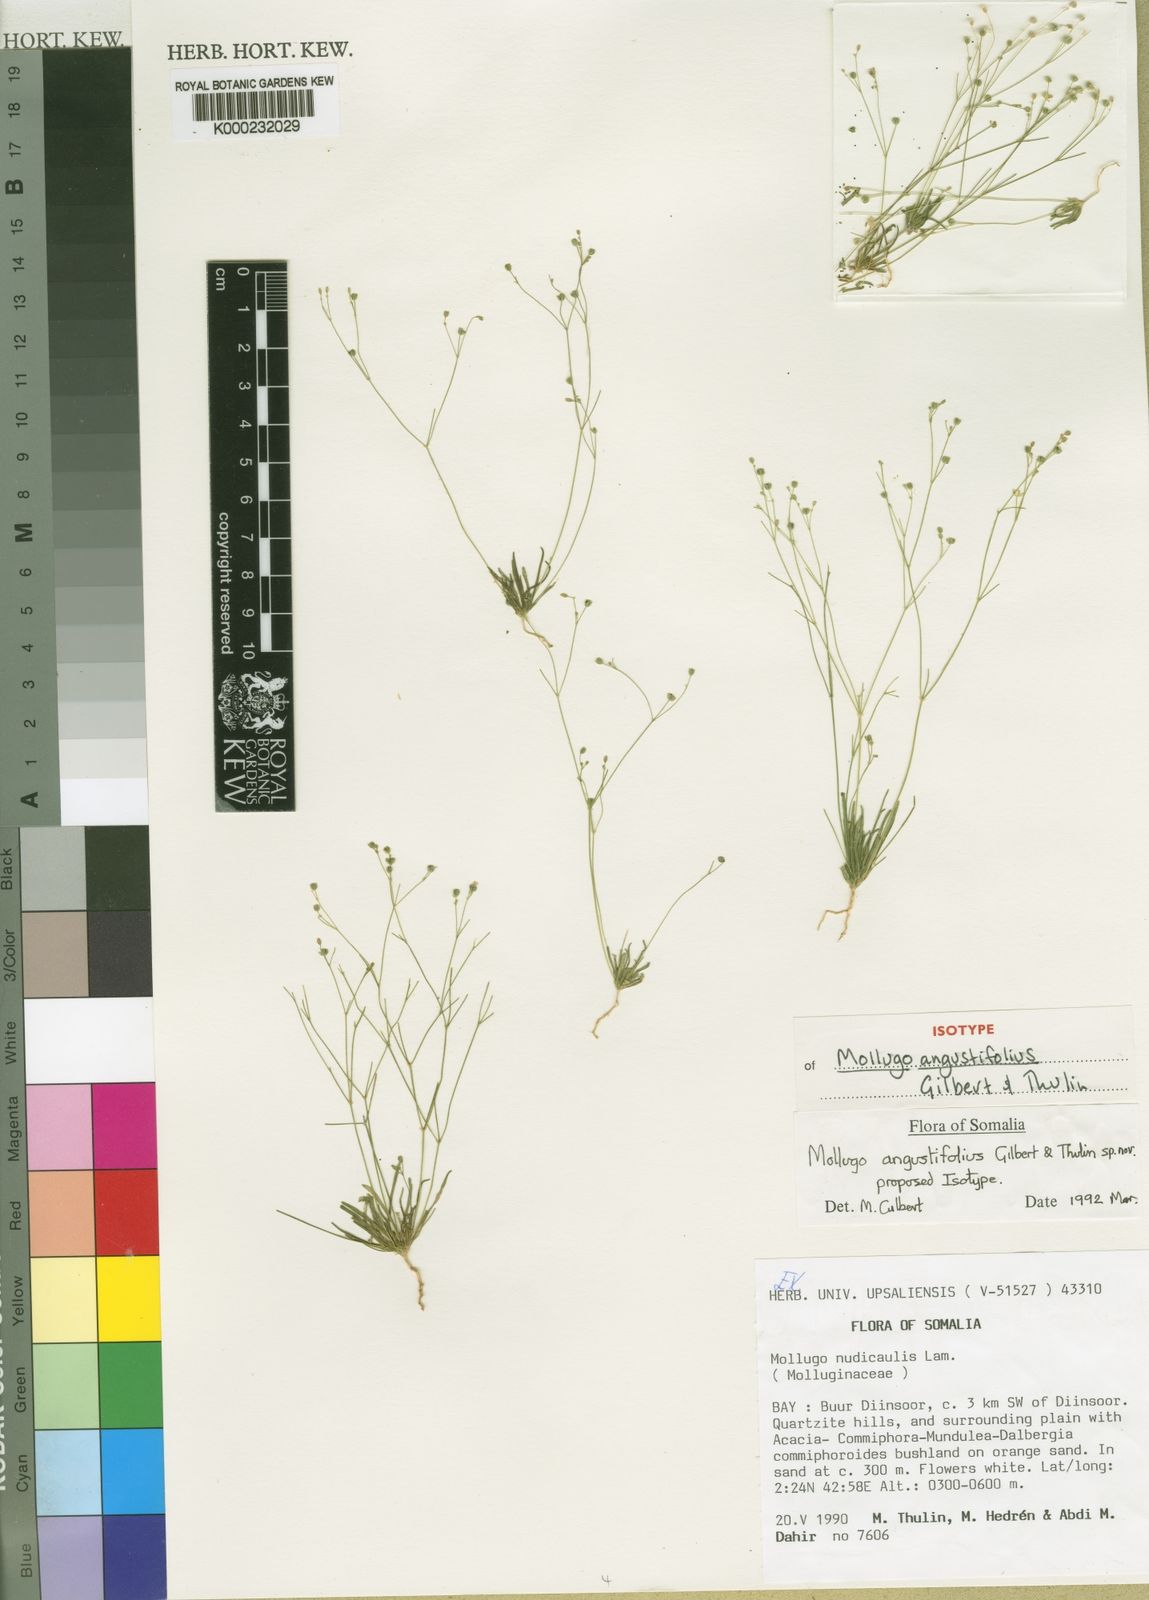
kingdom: Plantae
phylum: Tracheophyta
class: Magnoliopsida
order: Caryophyllales
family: Molluginaceae
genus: Paramollugo
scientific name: Paramollugo angustifolia
